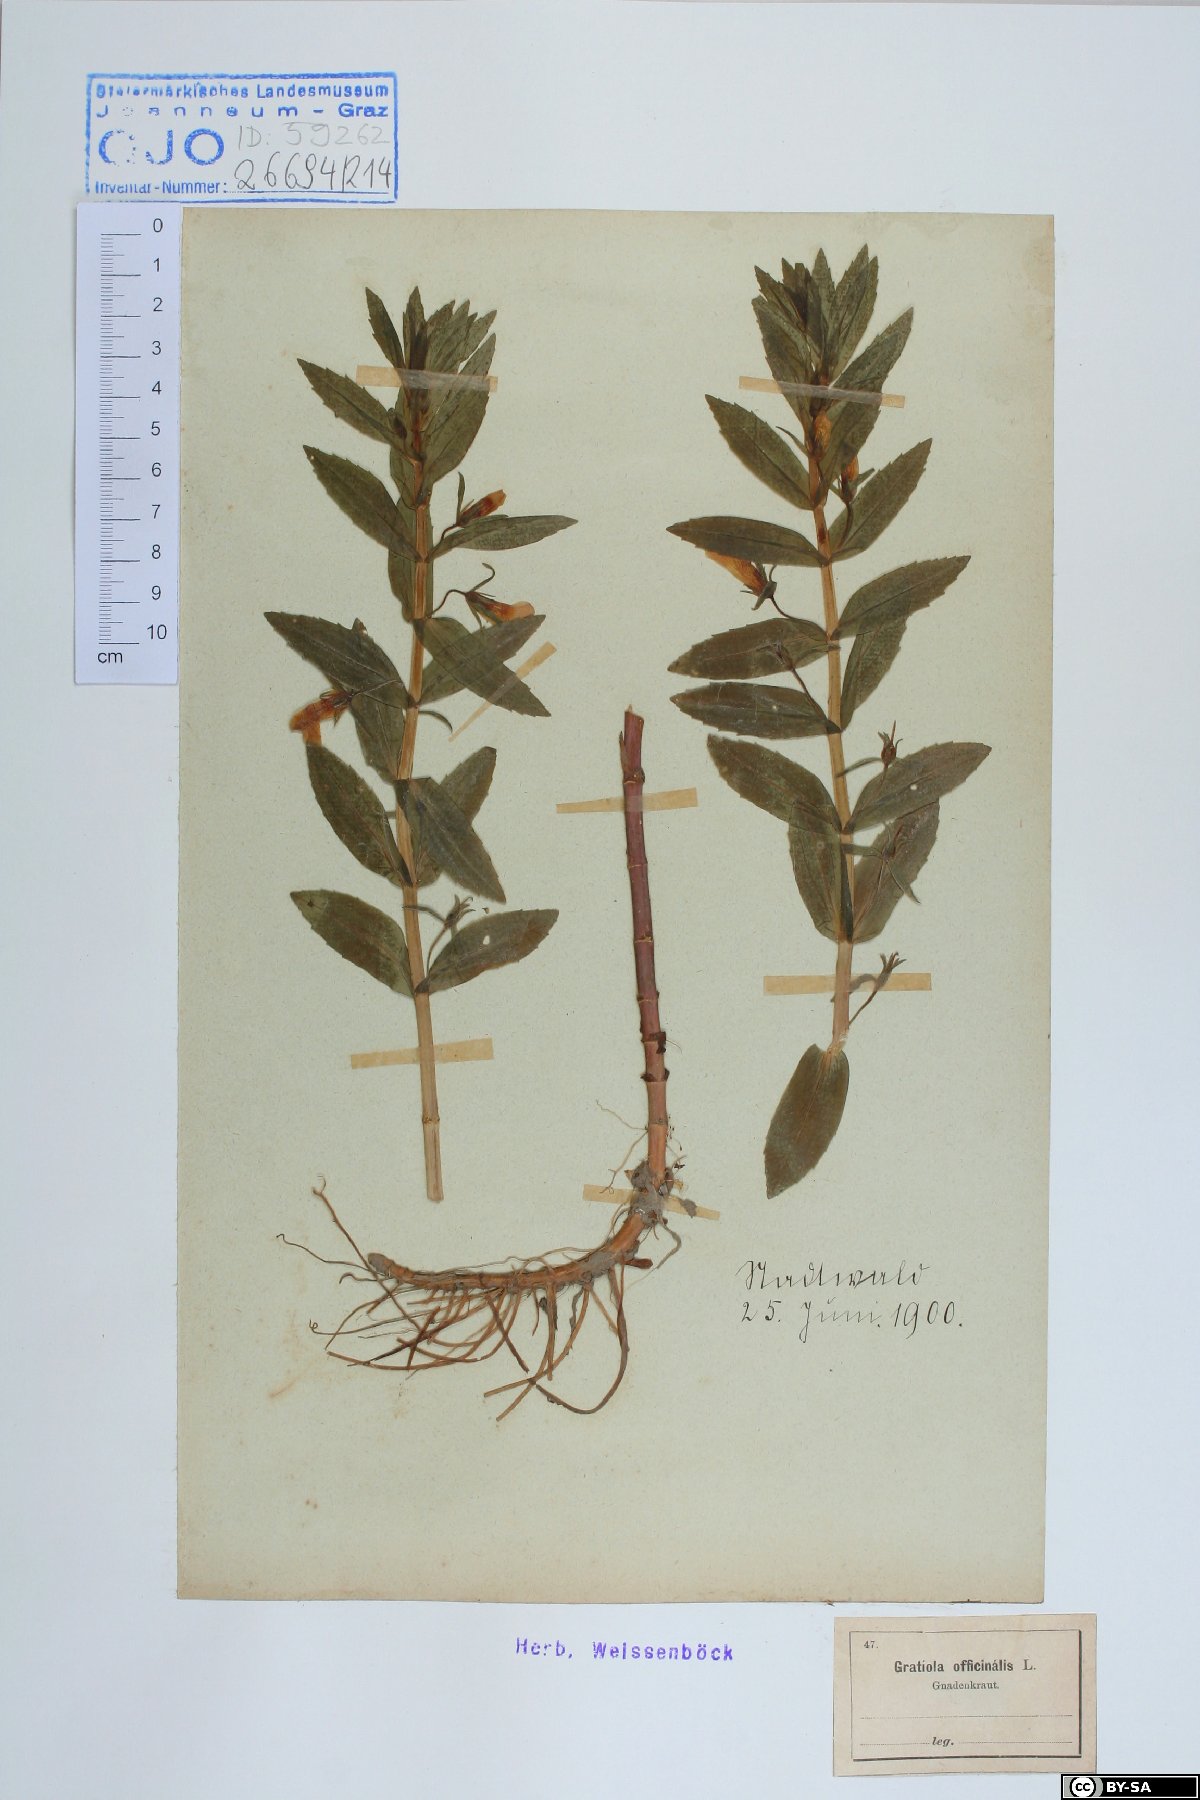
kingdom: Plantae
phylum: Tracheophyta
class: Magnoliopsida
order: Lamiales
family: Plantaginaceae
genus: Gratiola
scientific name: Gratiola officinalis
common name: Gratiola
